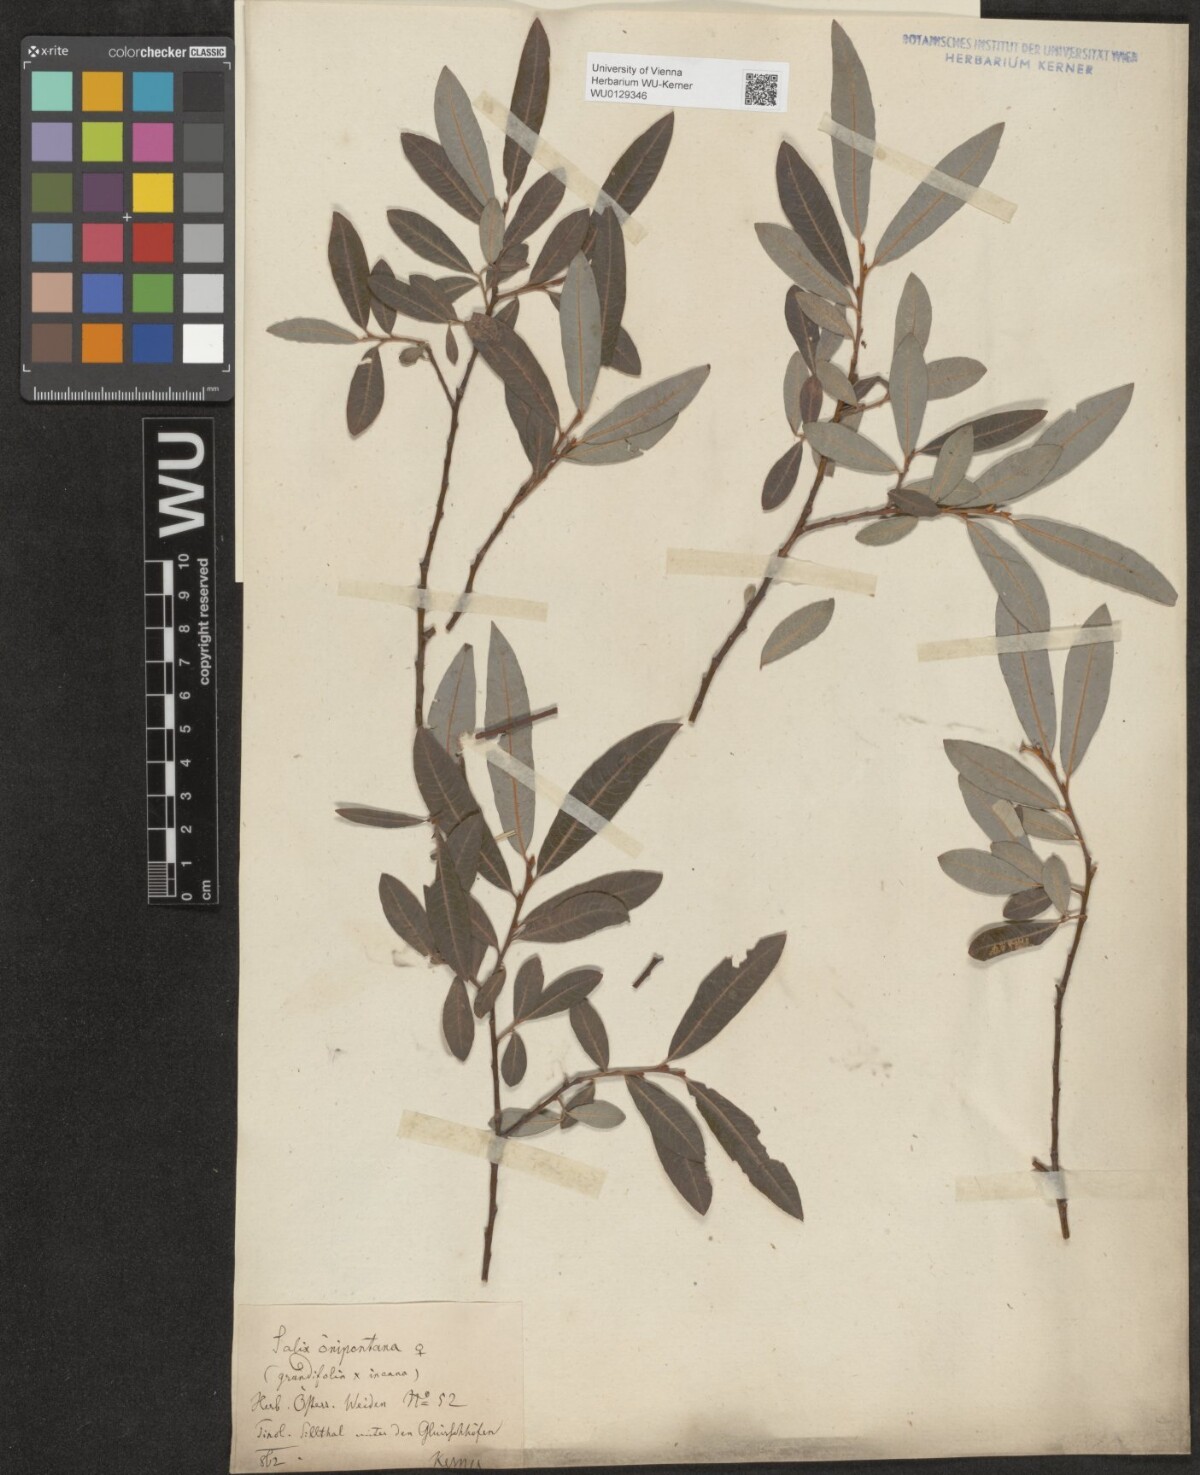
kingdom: Plantae
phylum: Tracheophyta
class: Magnoliopsida
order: Malpighiales
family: Salicaceae
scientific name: Salicaceae
